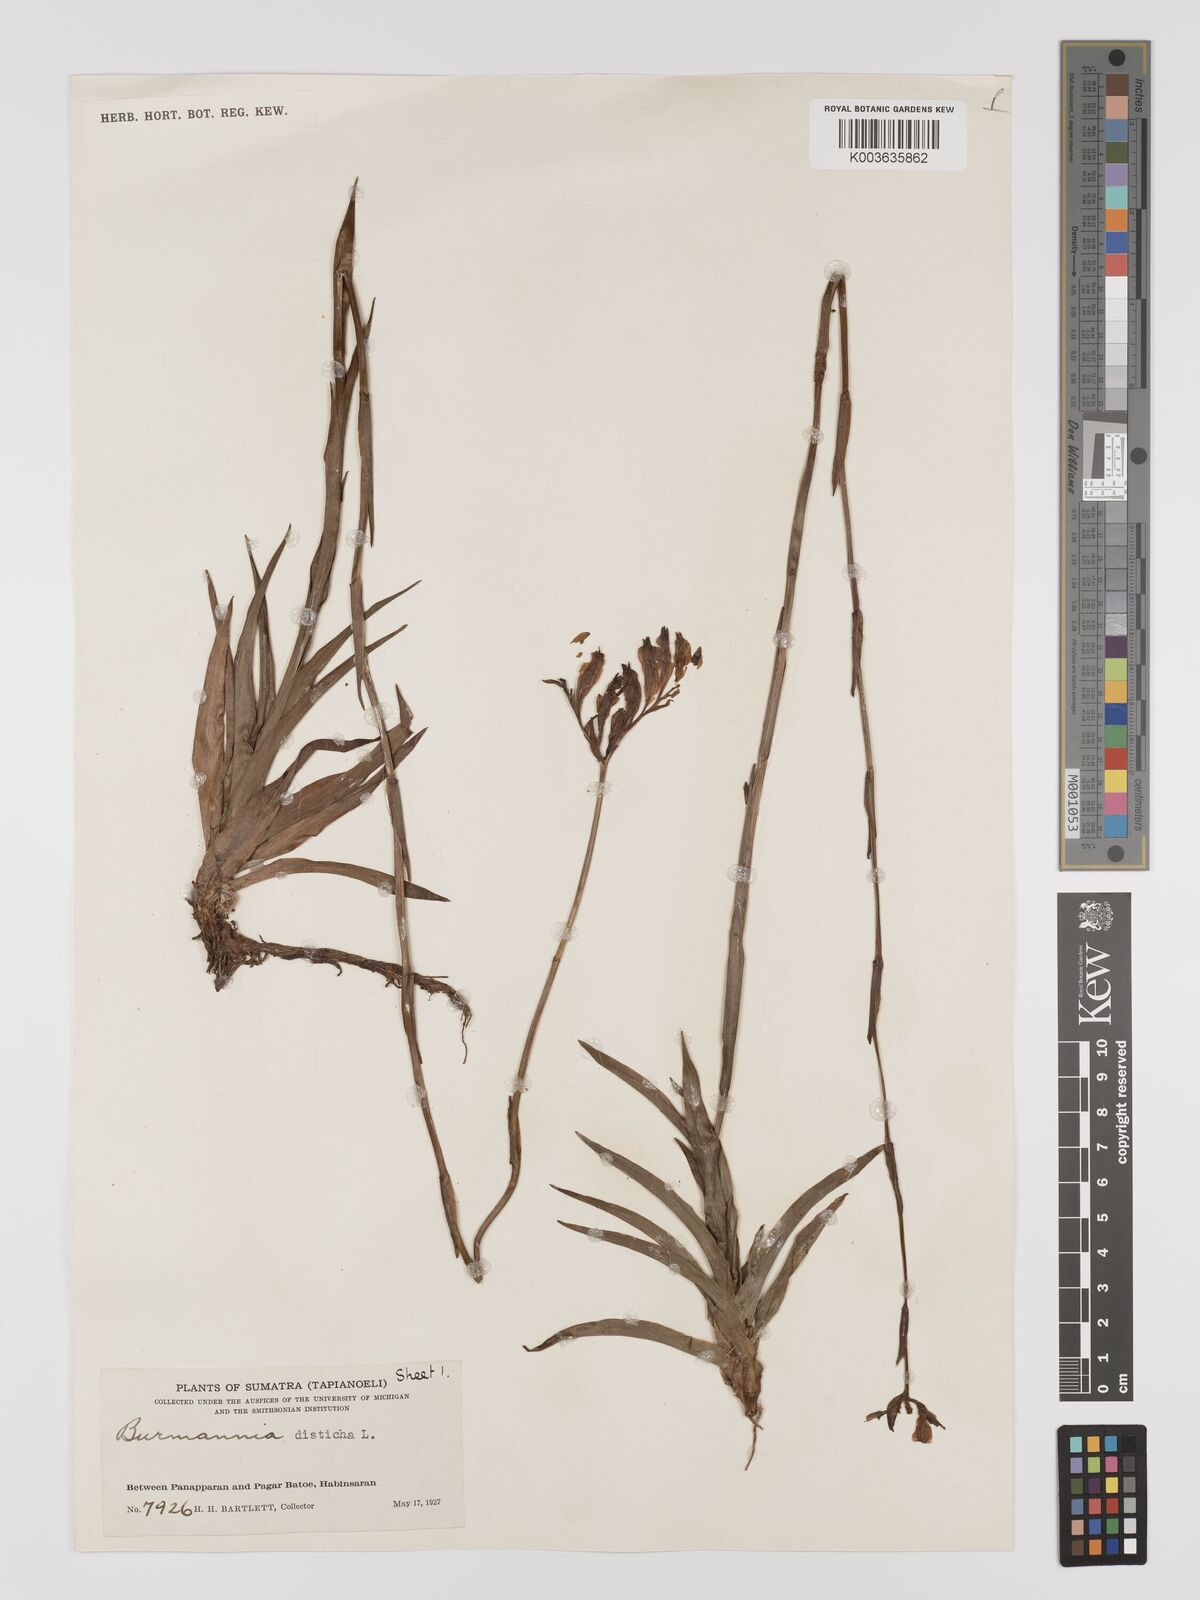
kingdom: Plantae
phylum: Tracheophyta
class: Liliopsida
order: Dioscoreales
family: Burmanniaceae
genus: Burmannia
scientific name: Burmannia disticha
